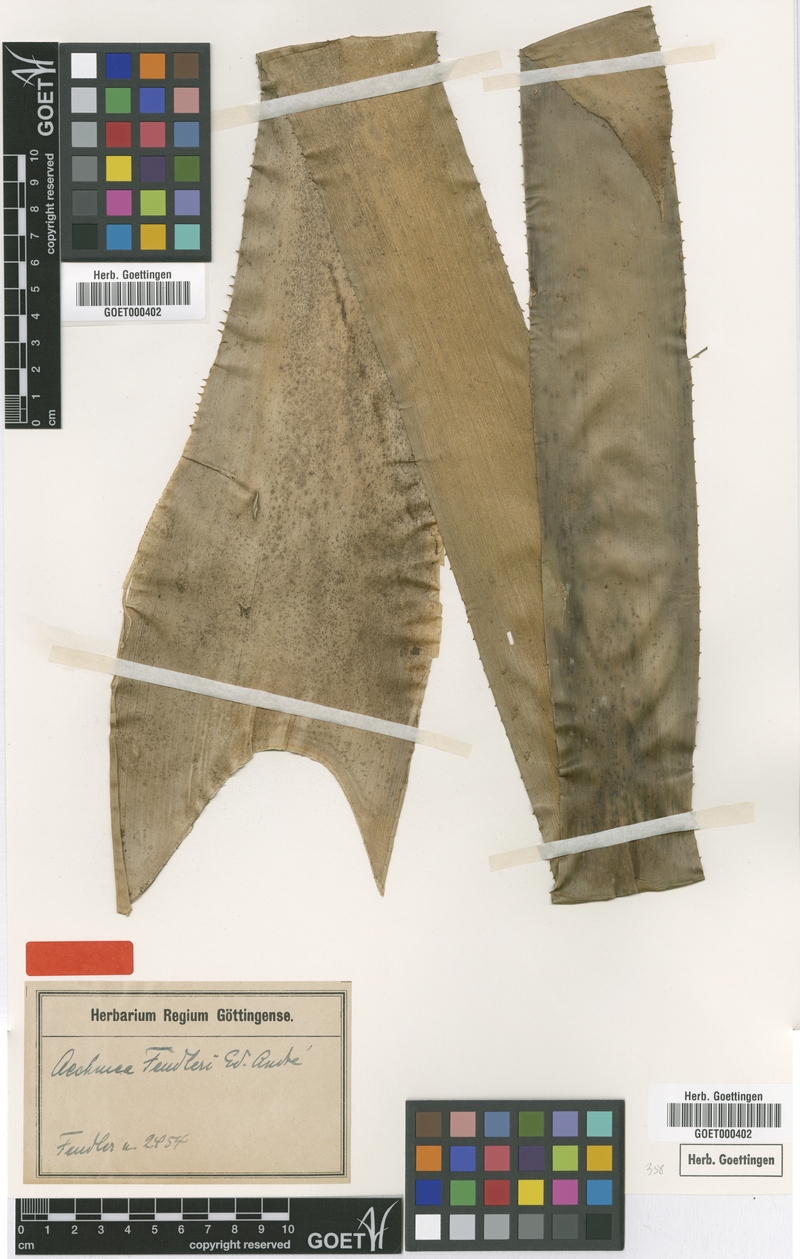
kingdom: Plantae
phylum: Tracheophyta
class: Liliopsida
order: Poales
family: Bromeliaceae
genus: Aechmea
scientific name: Aechmea fendleri
